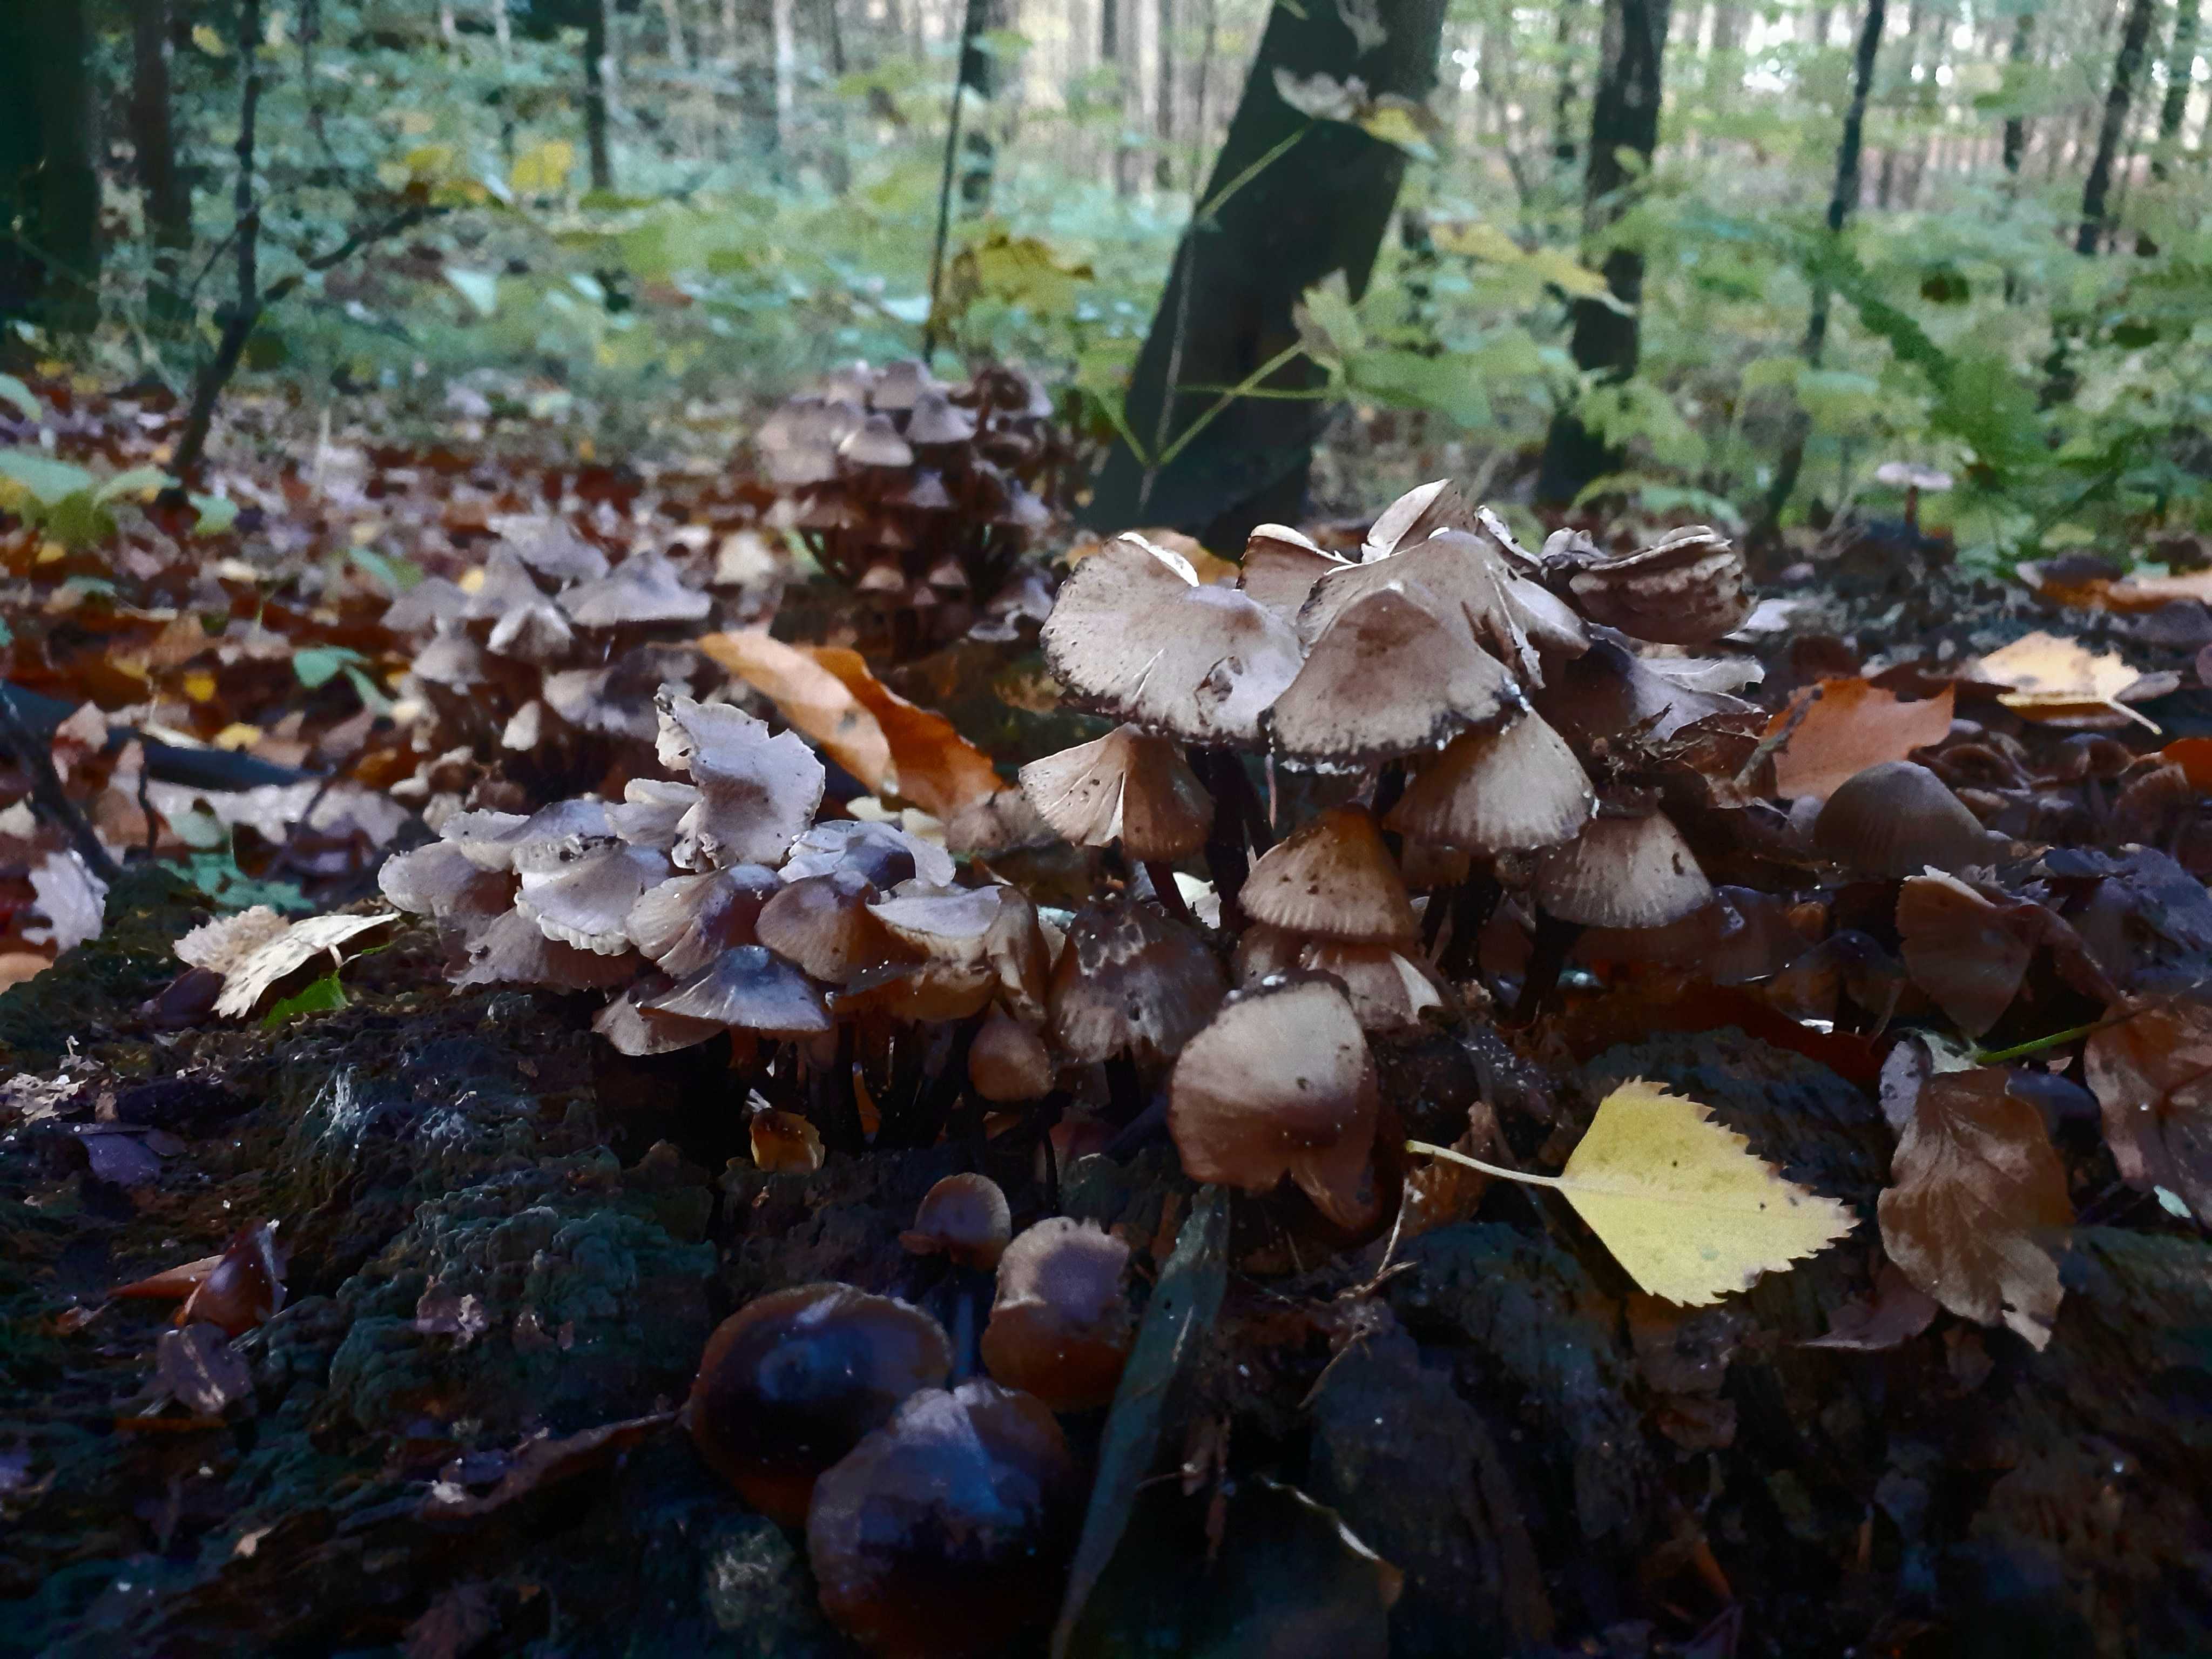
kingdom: Fungi
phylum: Basidiomycota
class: Agaricomycetes
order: Agaricales
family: Mycenaceae
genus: Mycena
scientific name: Mycena inclinata
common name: nikkende huesvamp
